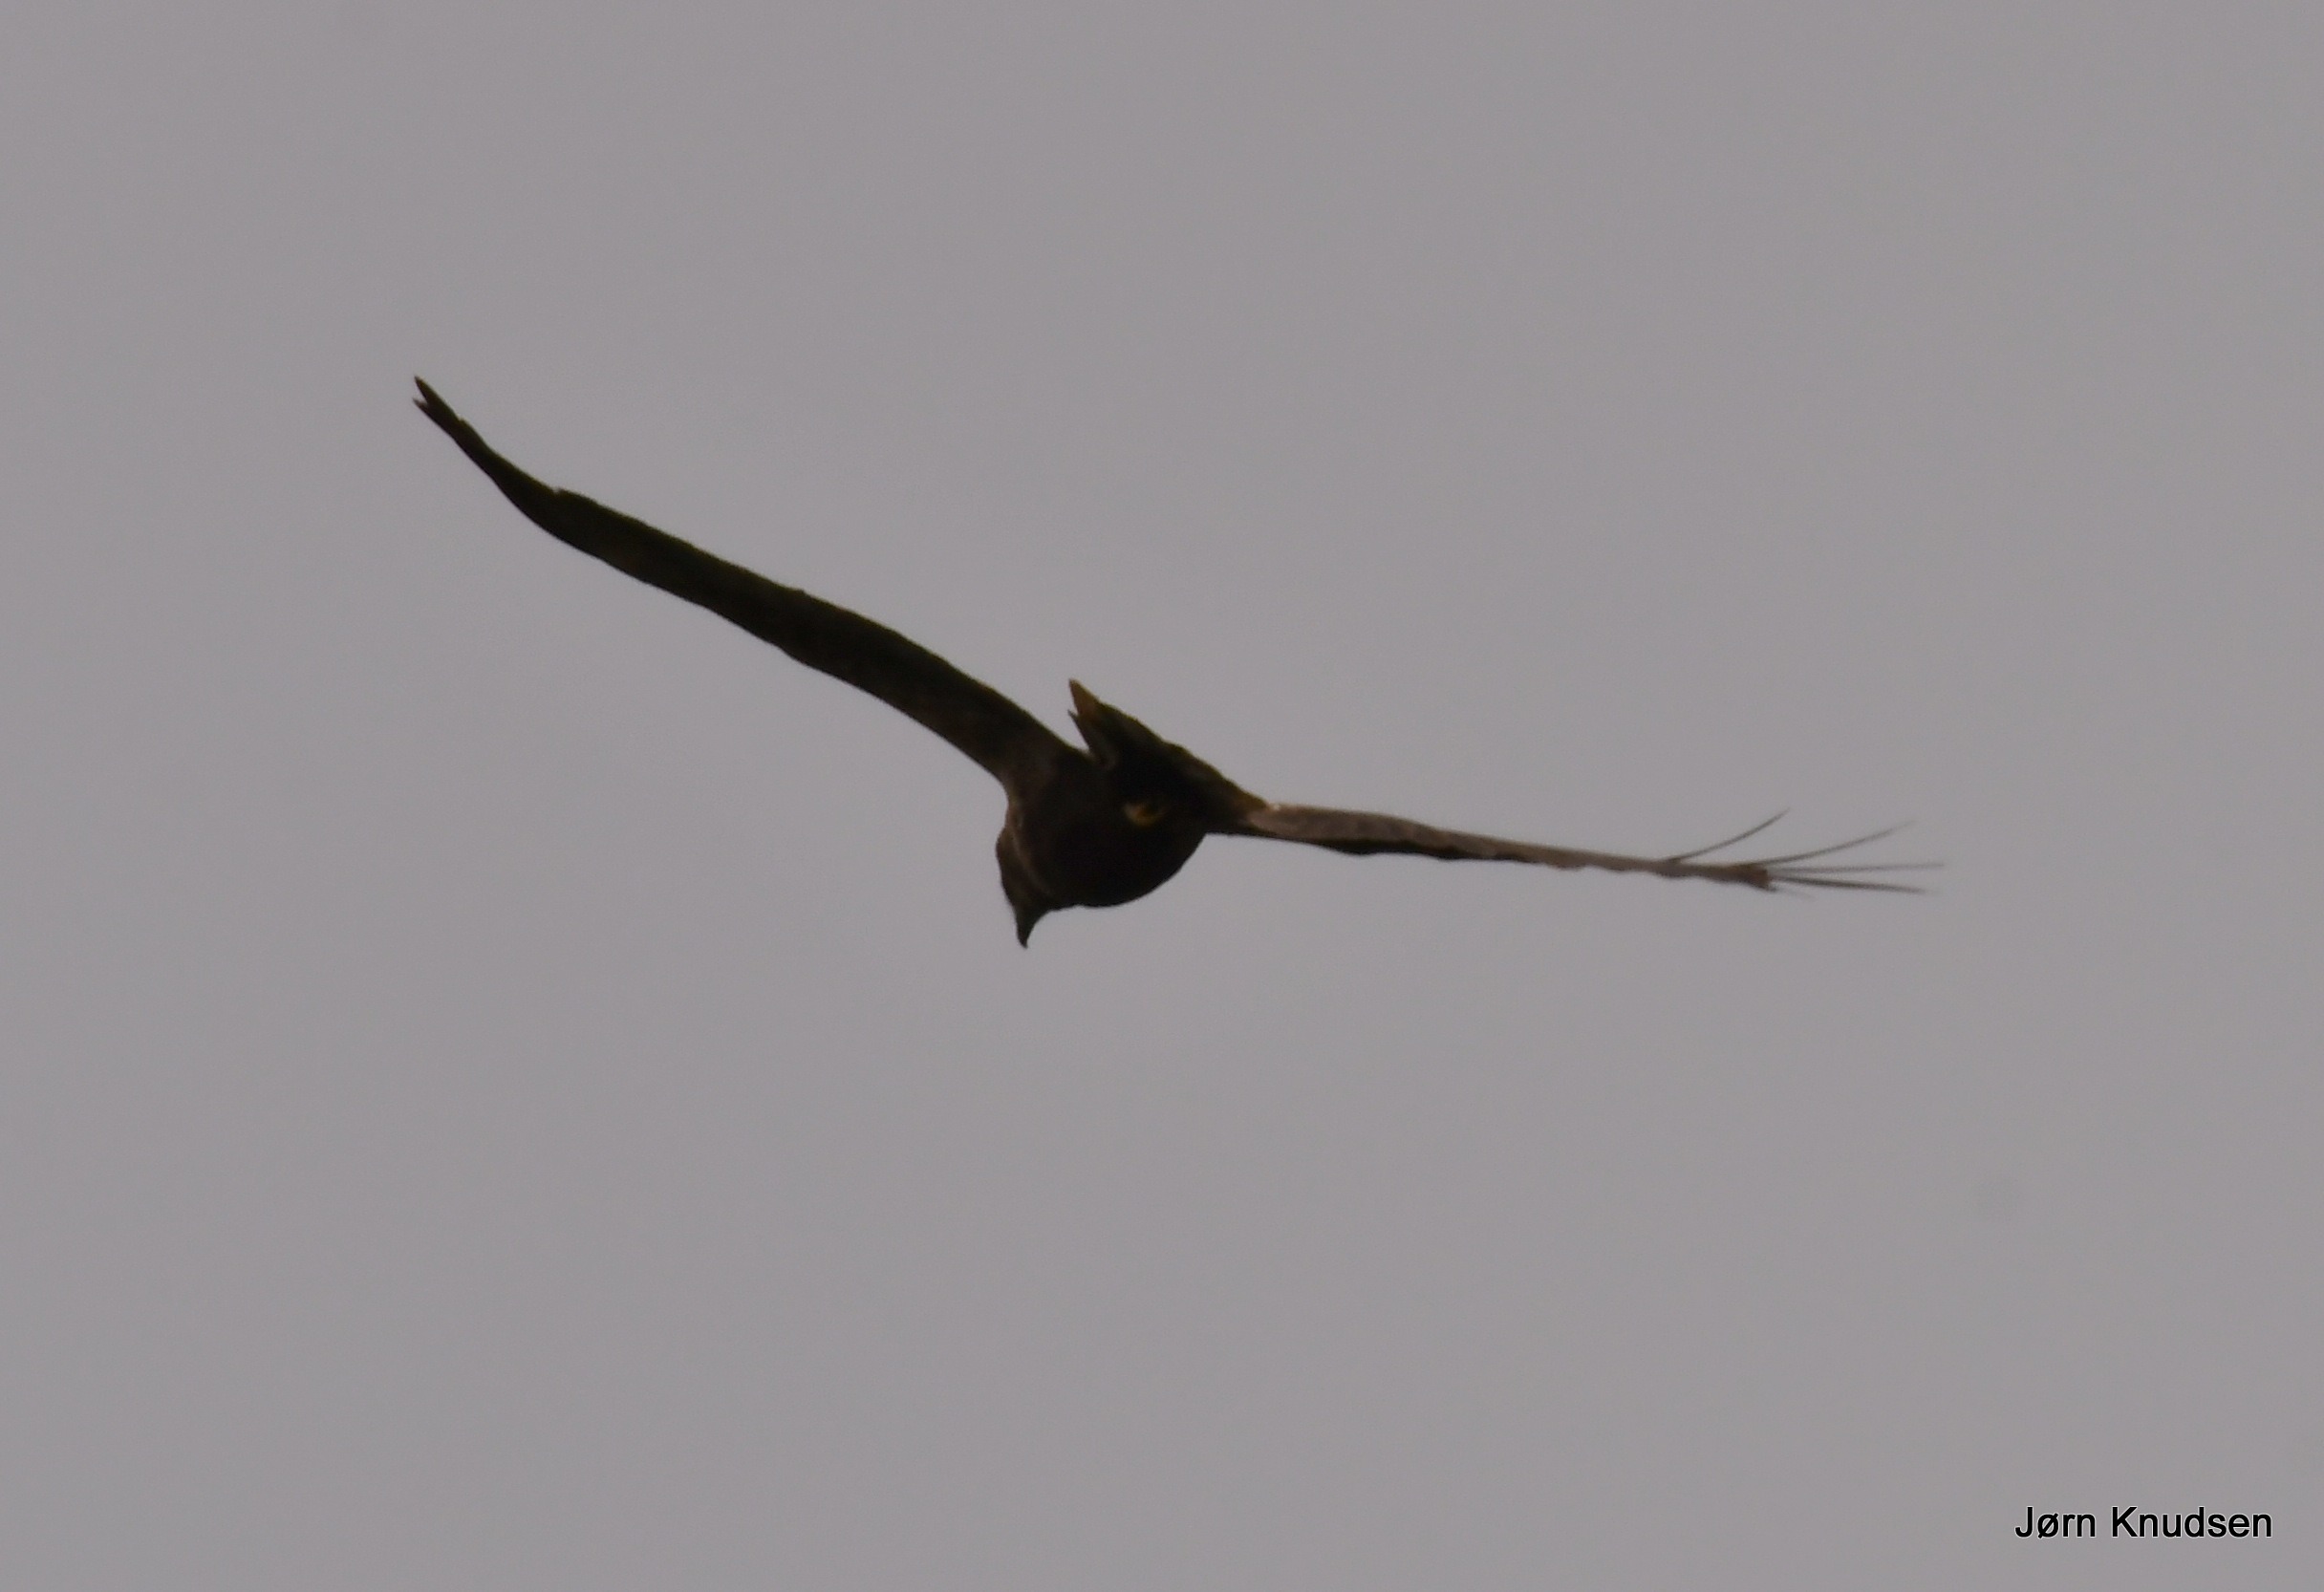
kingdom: Animalia
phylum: Chordata
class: Aves
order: Accipitriformes
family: Accipitridae
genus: Circus
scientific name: Circus aeruginosus
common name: Rørhøg
